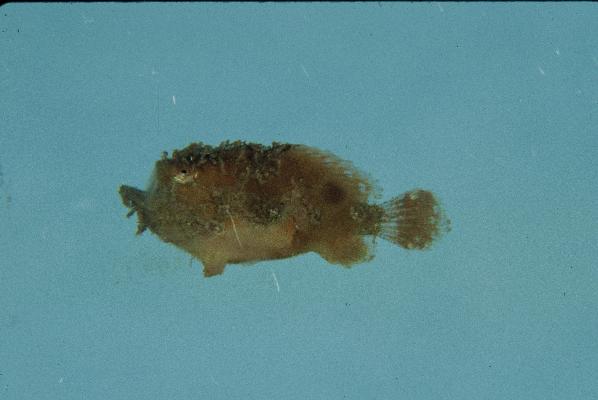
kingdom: Animalia
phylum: Chordata
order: Lophiiformes
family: Antennariidae
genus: Antennatus
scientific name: Antennatus coccineus
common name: Scarlet frogfish
